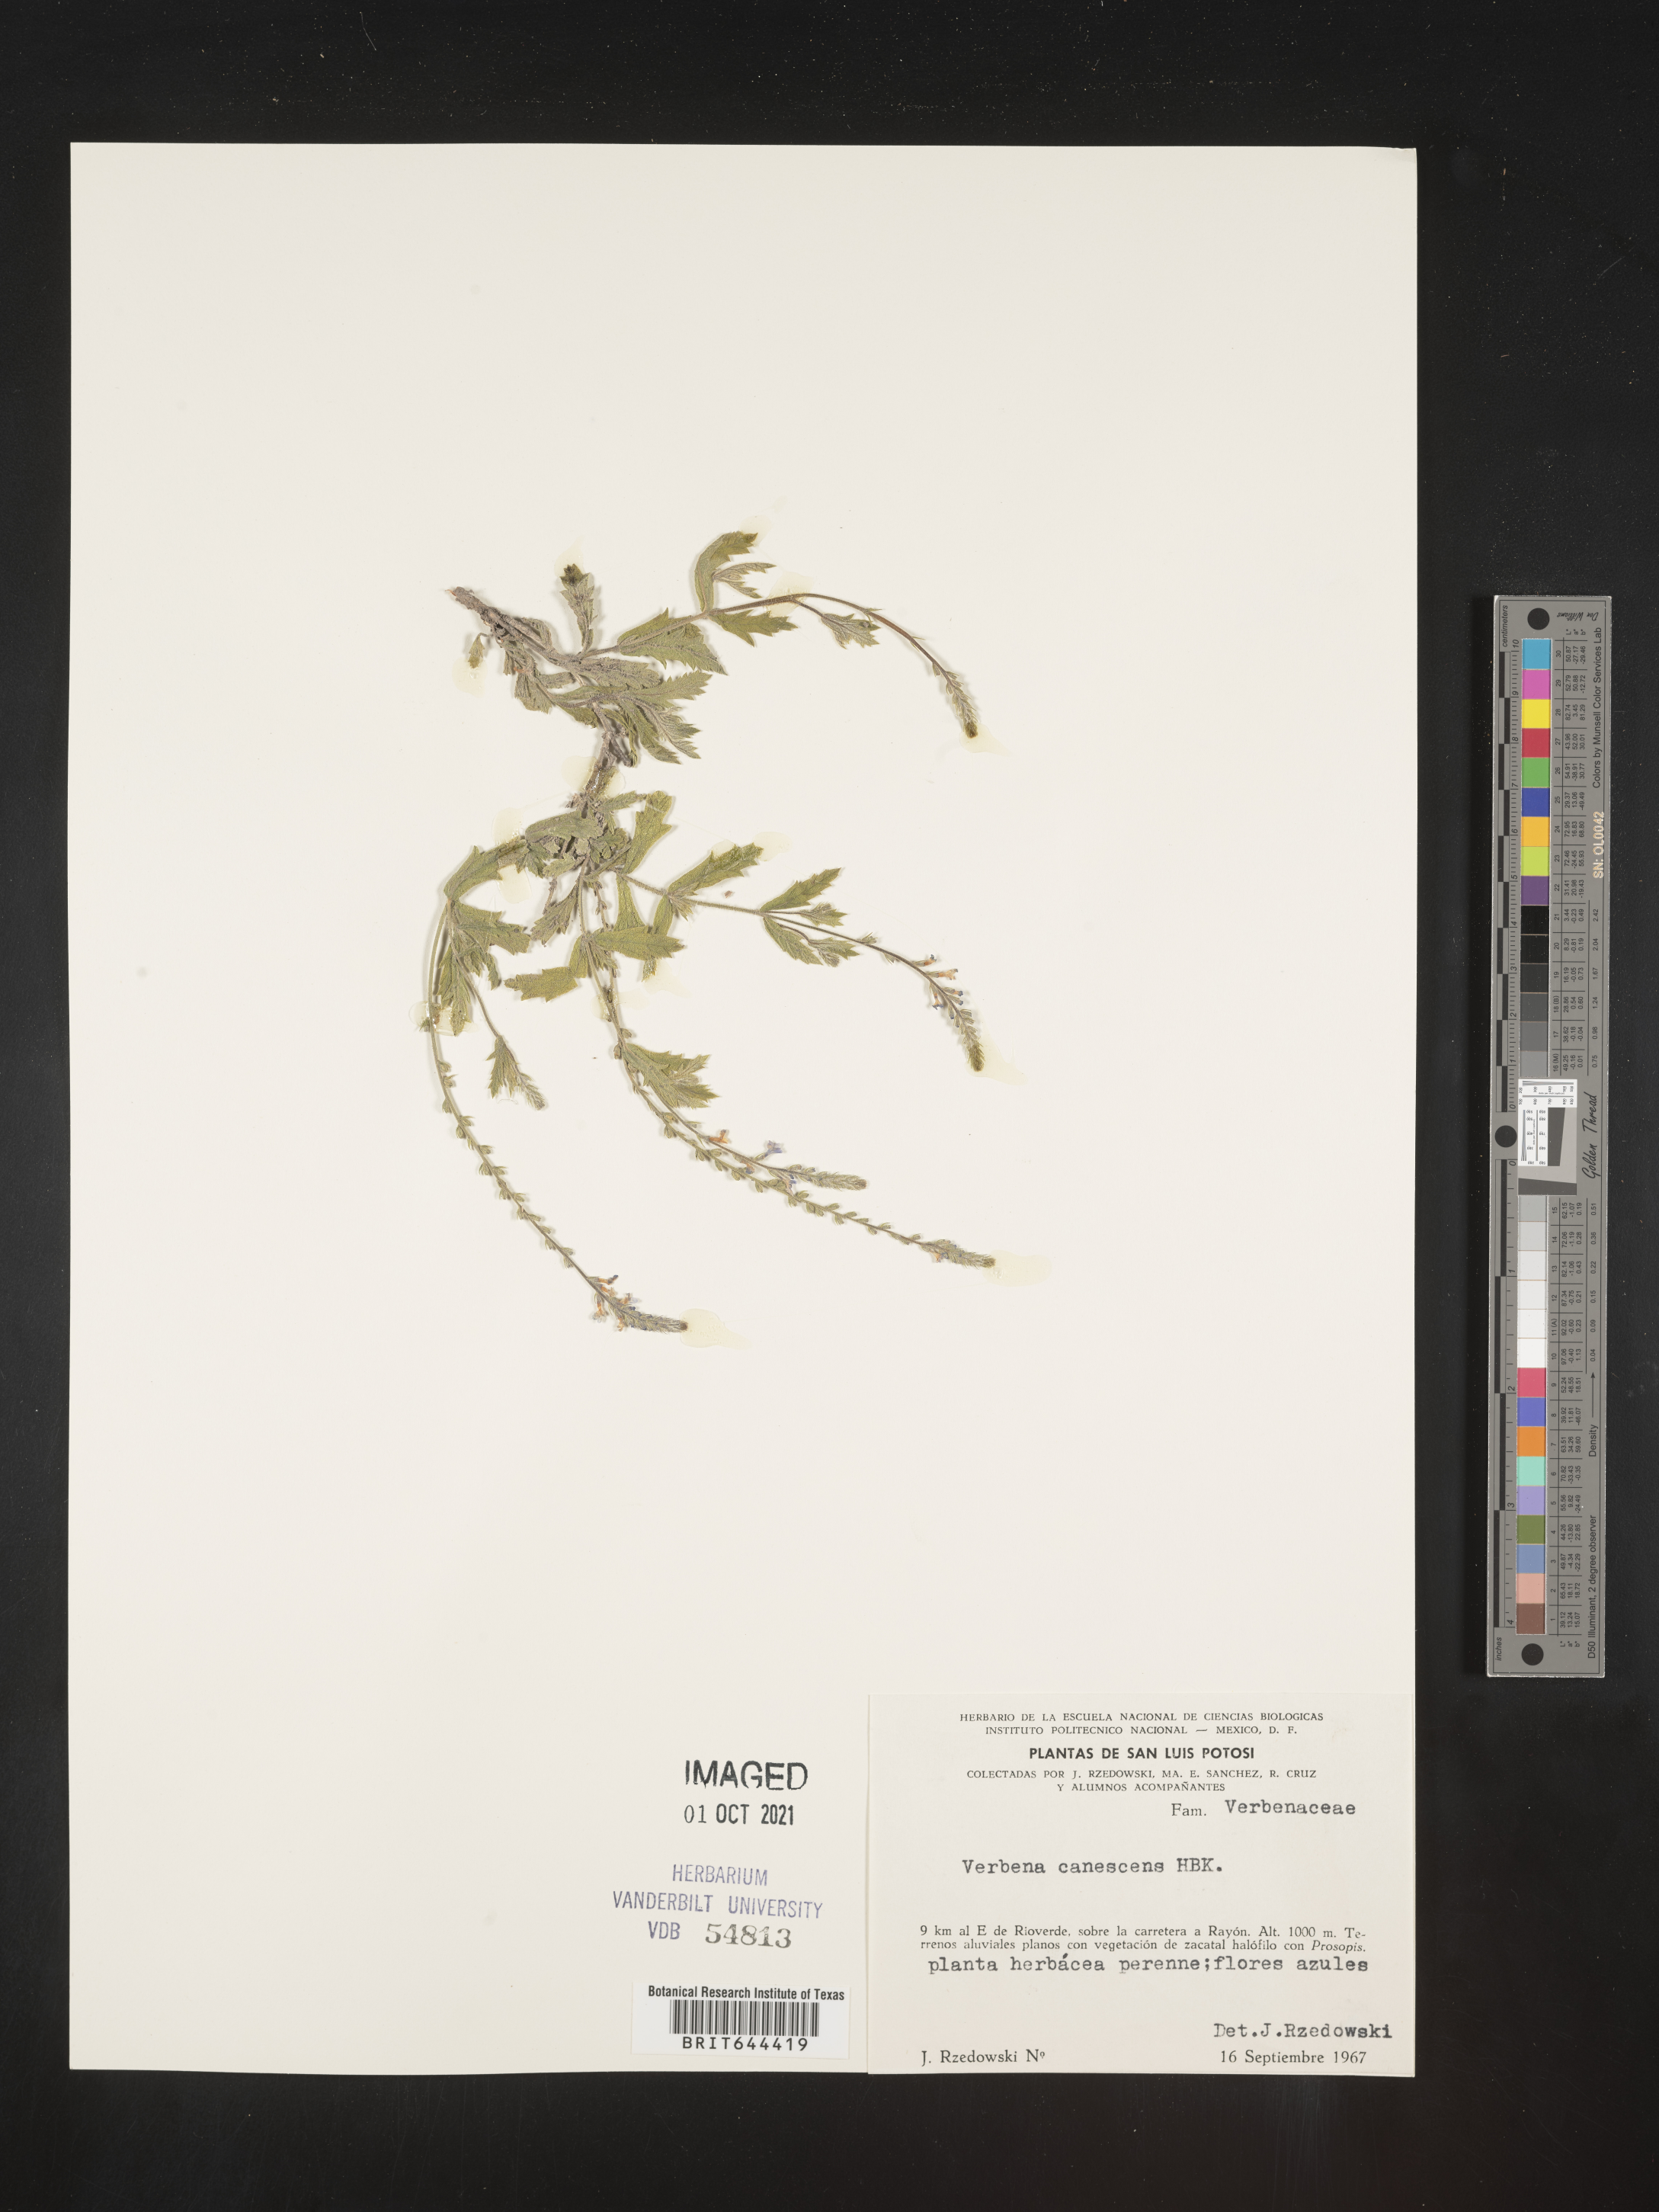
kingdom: Plantae
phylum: Tracheophyta
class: Magnoliopsida
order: Lamiales
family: Verbenaceae
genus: Verbena
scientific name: Verbena
